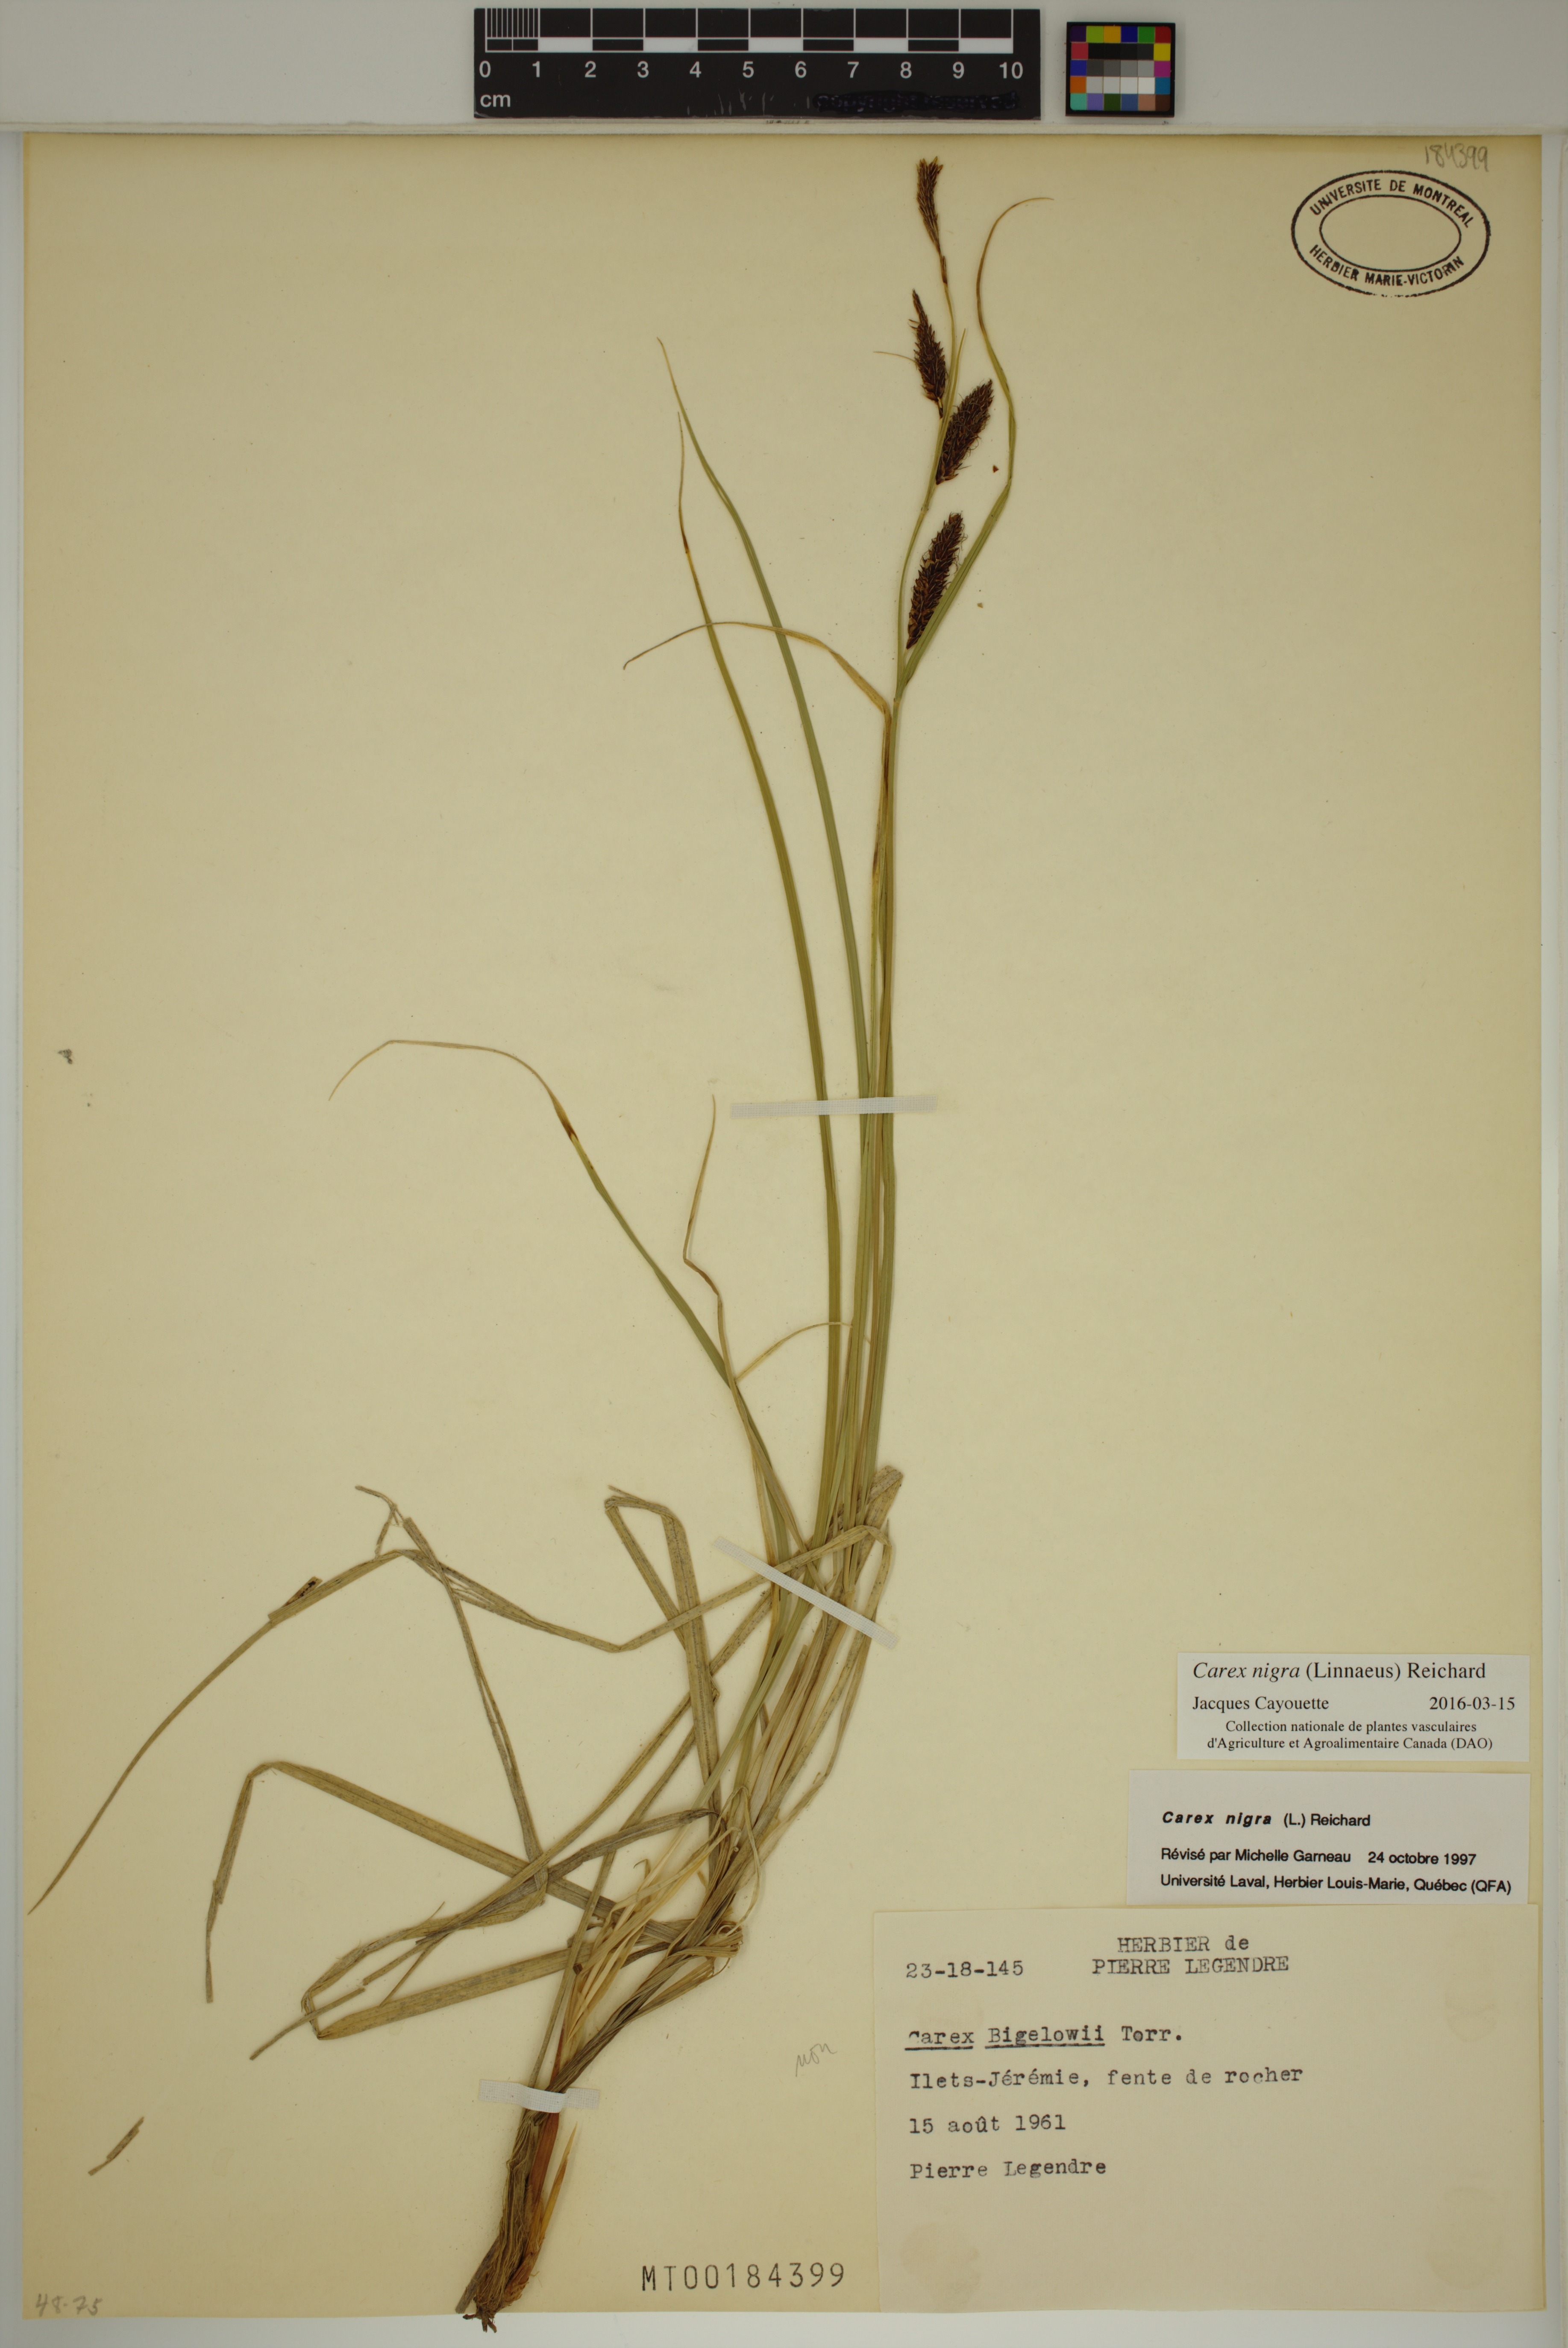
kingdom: Plantae
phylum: Tracheophyta
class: Liliopsida
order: Poales
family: Cyperaceae
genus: Carex
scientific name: Carex nigra
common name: Common sedge
